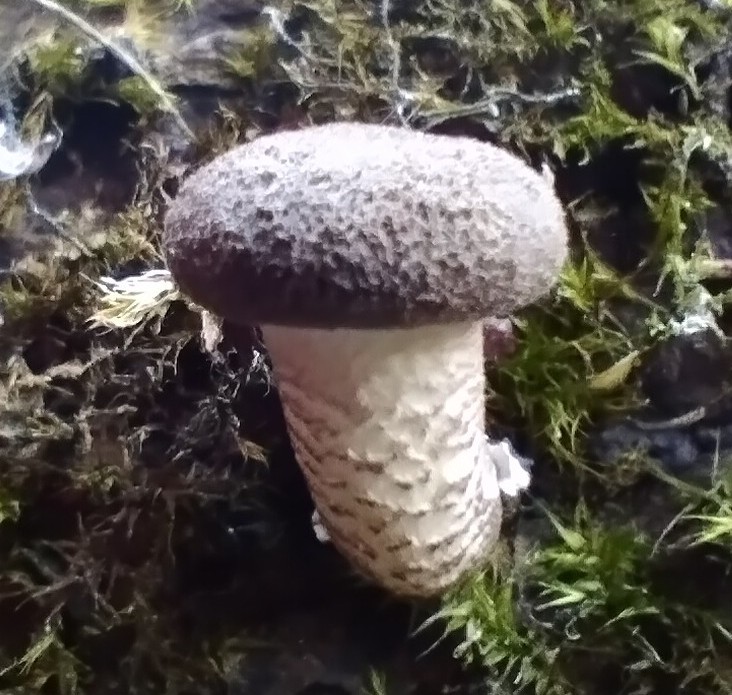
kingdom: Fungi
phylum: Basidiomycota
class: Agaricomycetes
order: Polyporales
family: Polyporaceae
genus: Lentinus
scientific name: Lentinus tigrinus
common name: tigerhat
